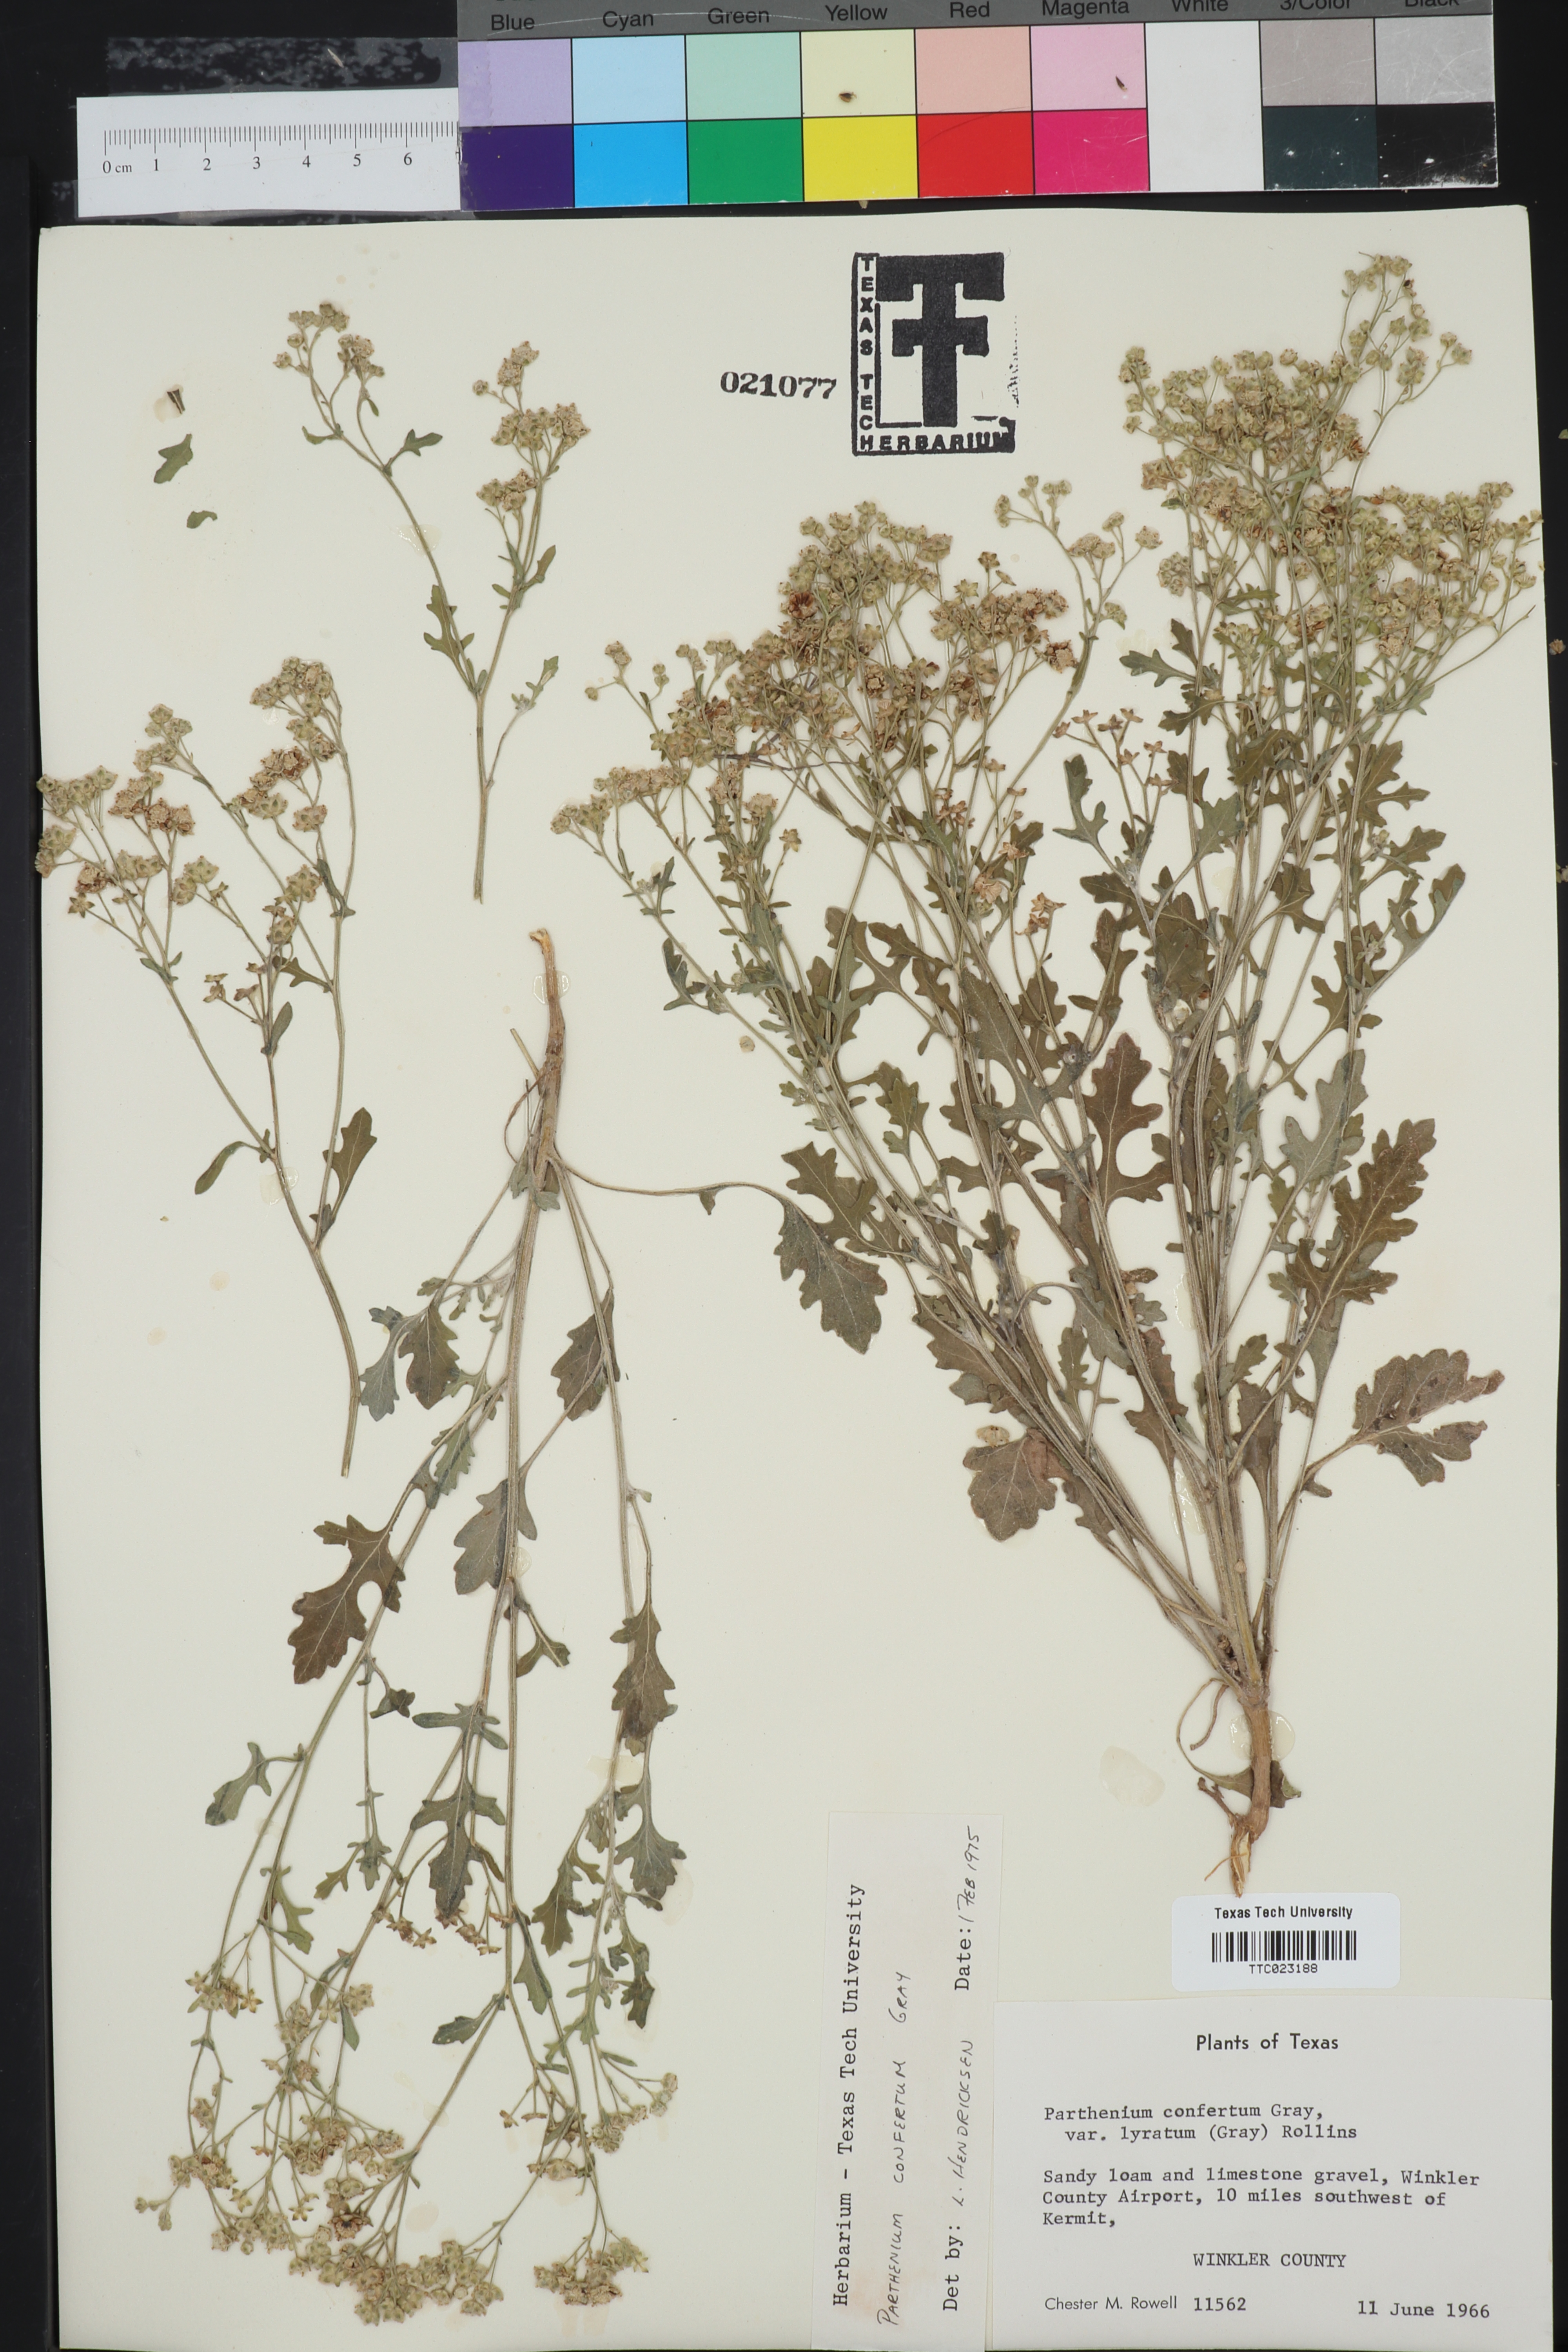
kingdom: Plantae
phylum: Tracheophyta
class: Magnoliopsida
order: Asterales
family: Asteraceae
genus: Parthenium
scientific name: Parthenium confertum
